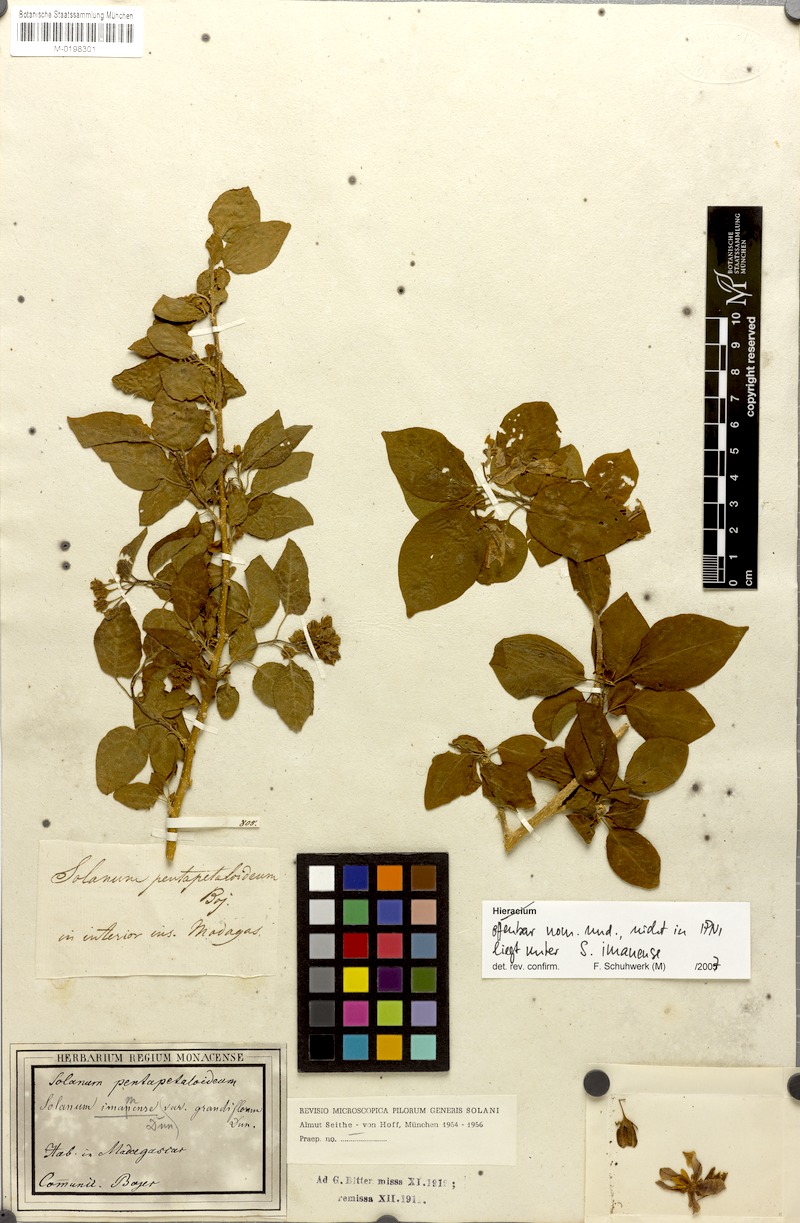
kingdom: Plantae
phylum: Tracheophyta
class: Magnoliopsida
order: Solanales
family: Solanaceae
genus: Solanum
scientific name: Solanum imamense
